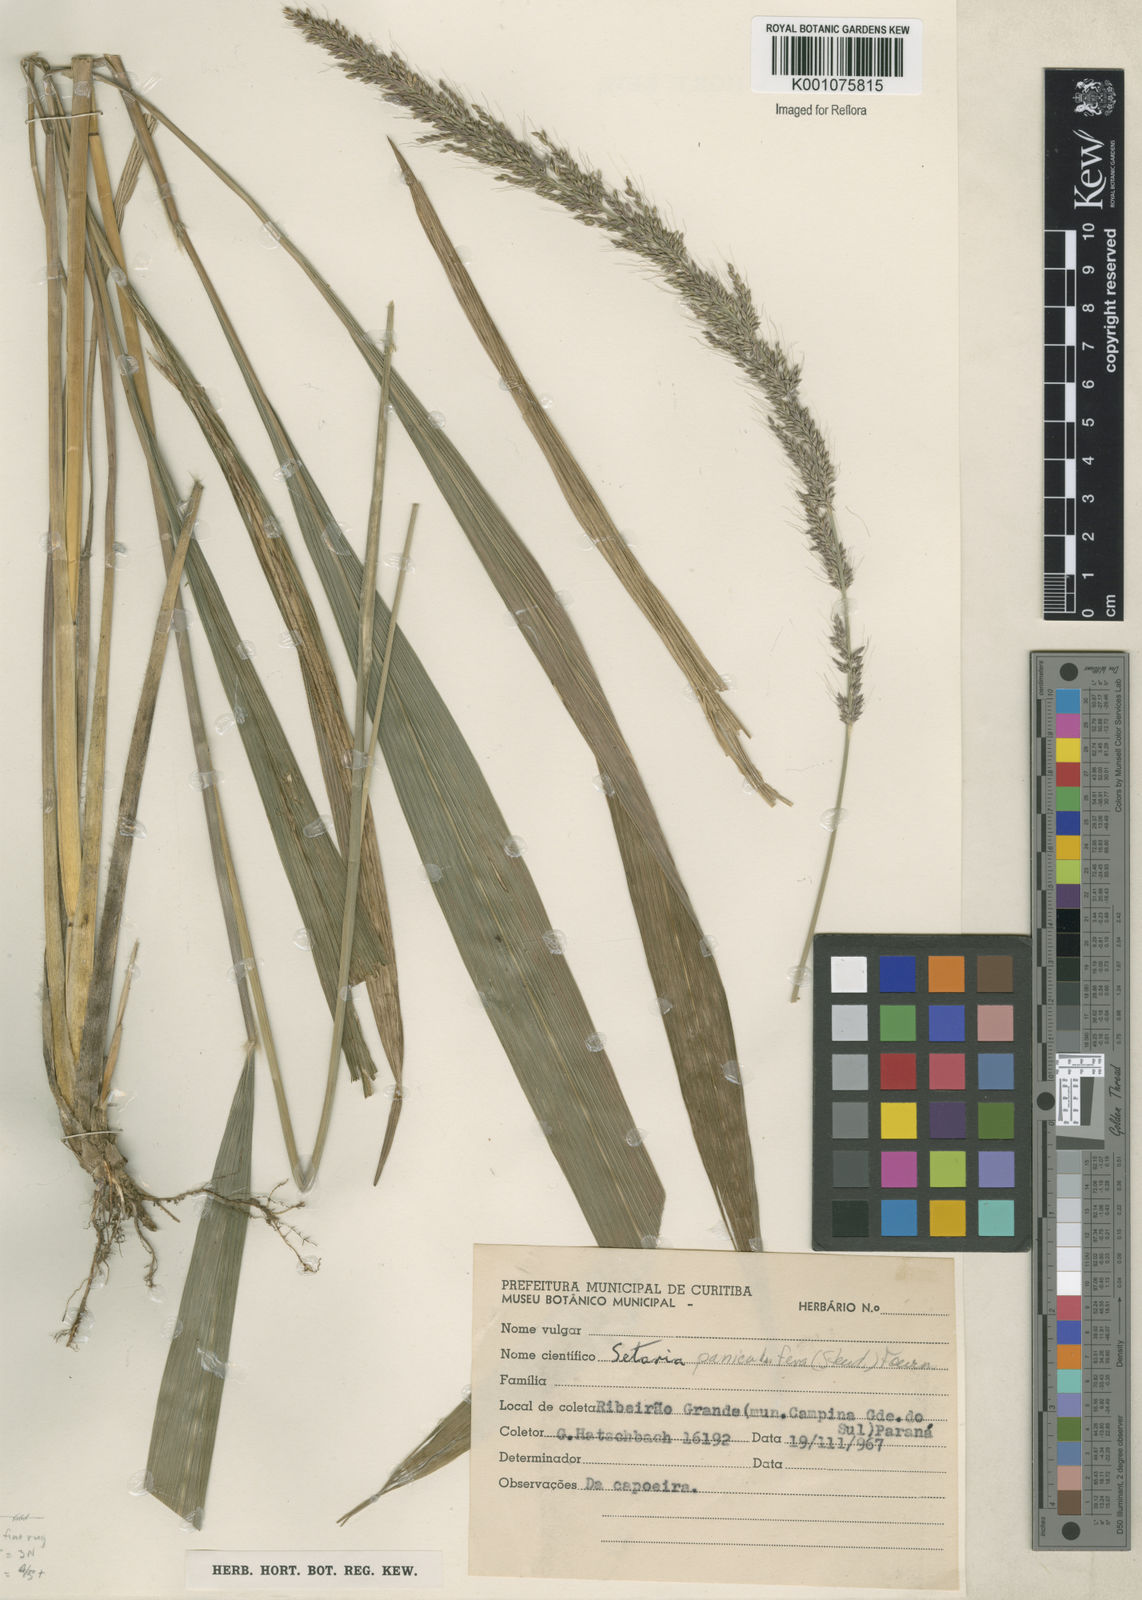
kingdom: Plantae
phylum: Tracheophyta
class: Liliopsida
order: Poales
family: Poaceae
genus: Setaria
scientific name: Setaria megaphylla
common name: Bigleaf bristlegrass
